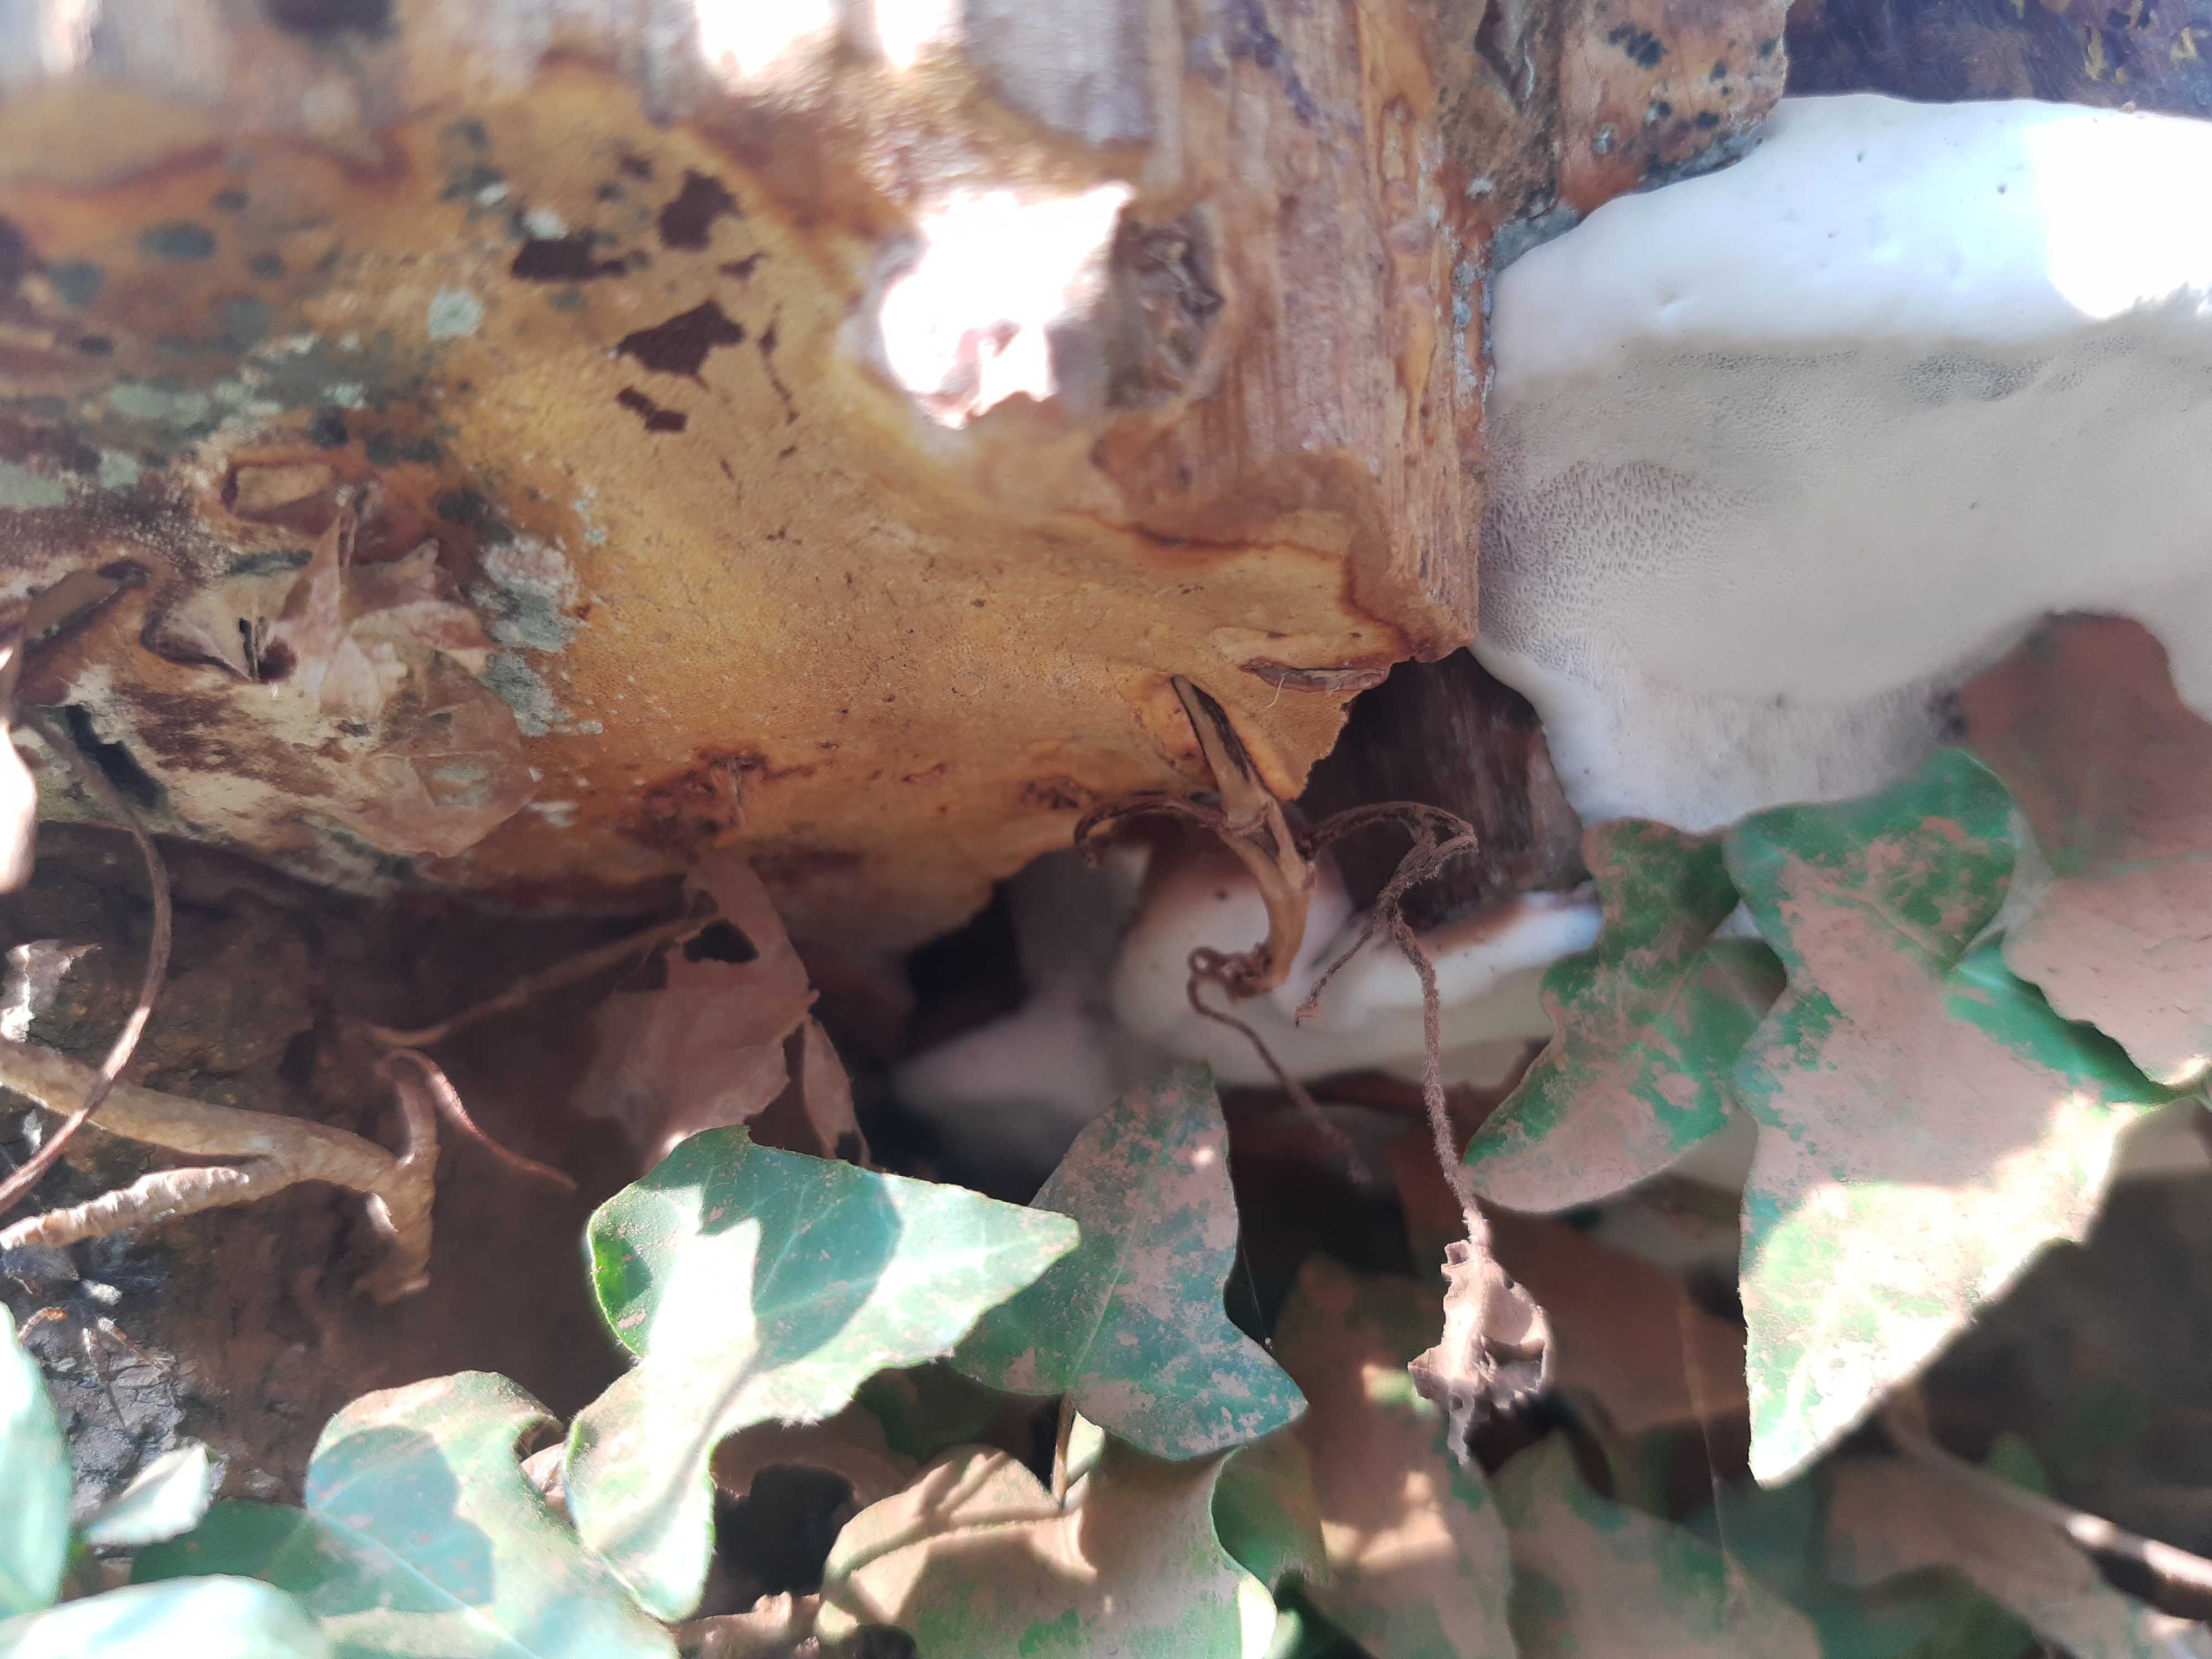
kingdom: Fungi
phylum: Basidiomycota
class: Agaricomycetes
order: Polyporales
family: Polyporaceae
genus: Ganoderma
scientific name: Ganoderma pfeifferi
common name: kobberrød lakporesvamp
